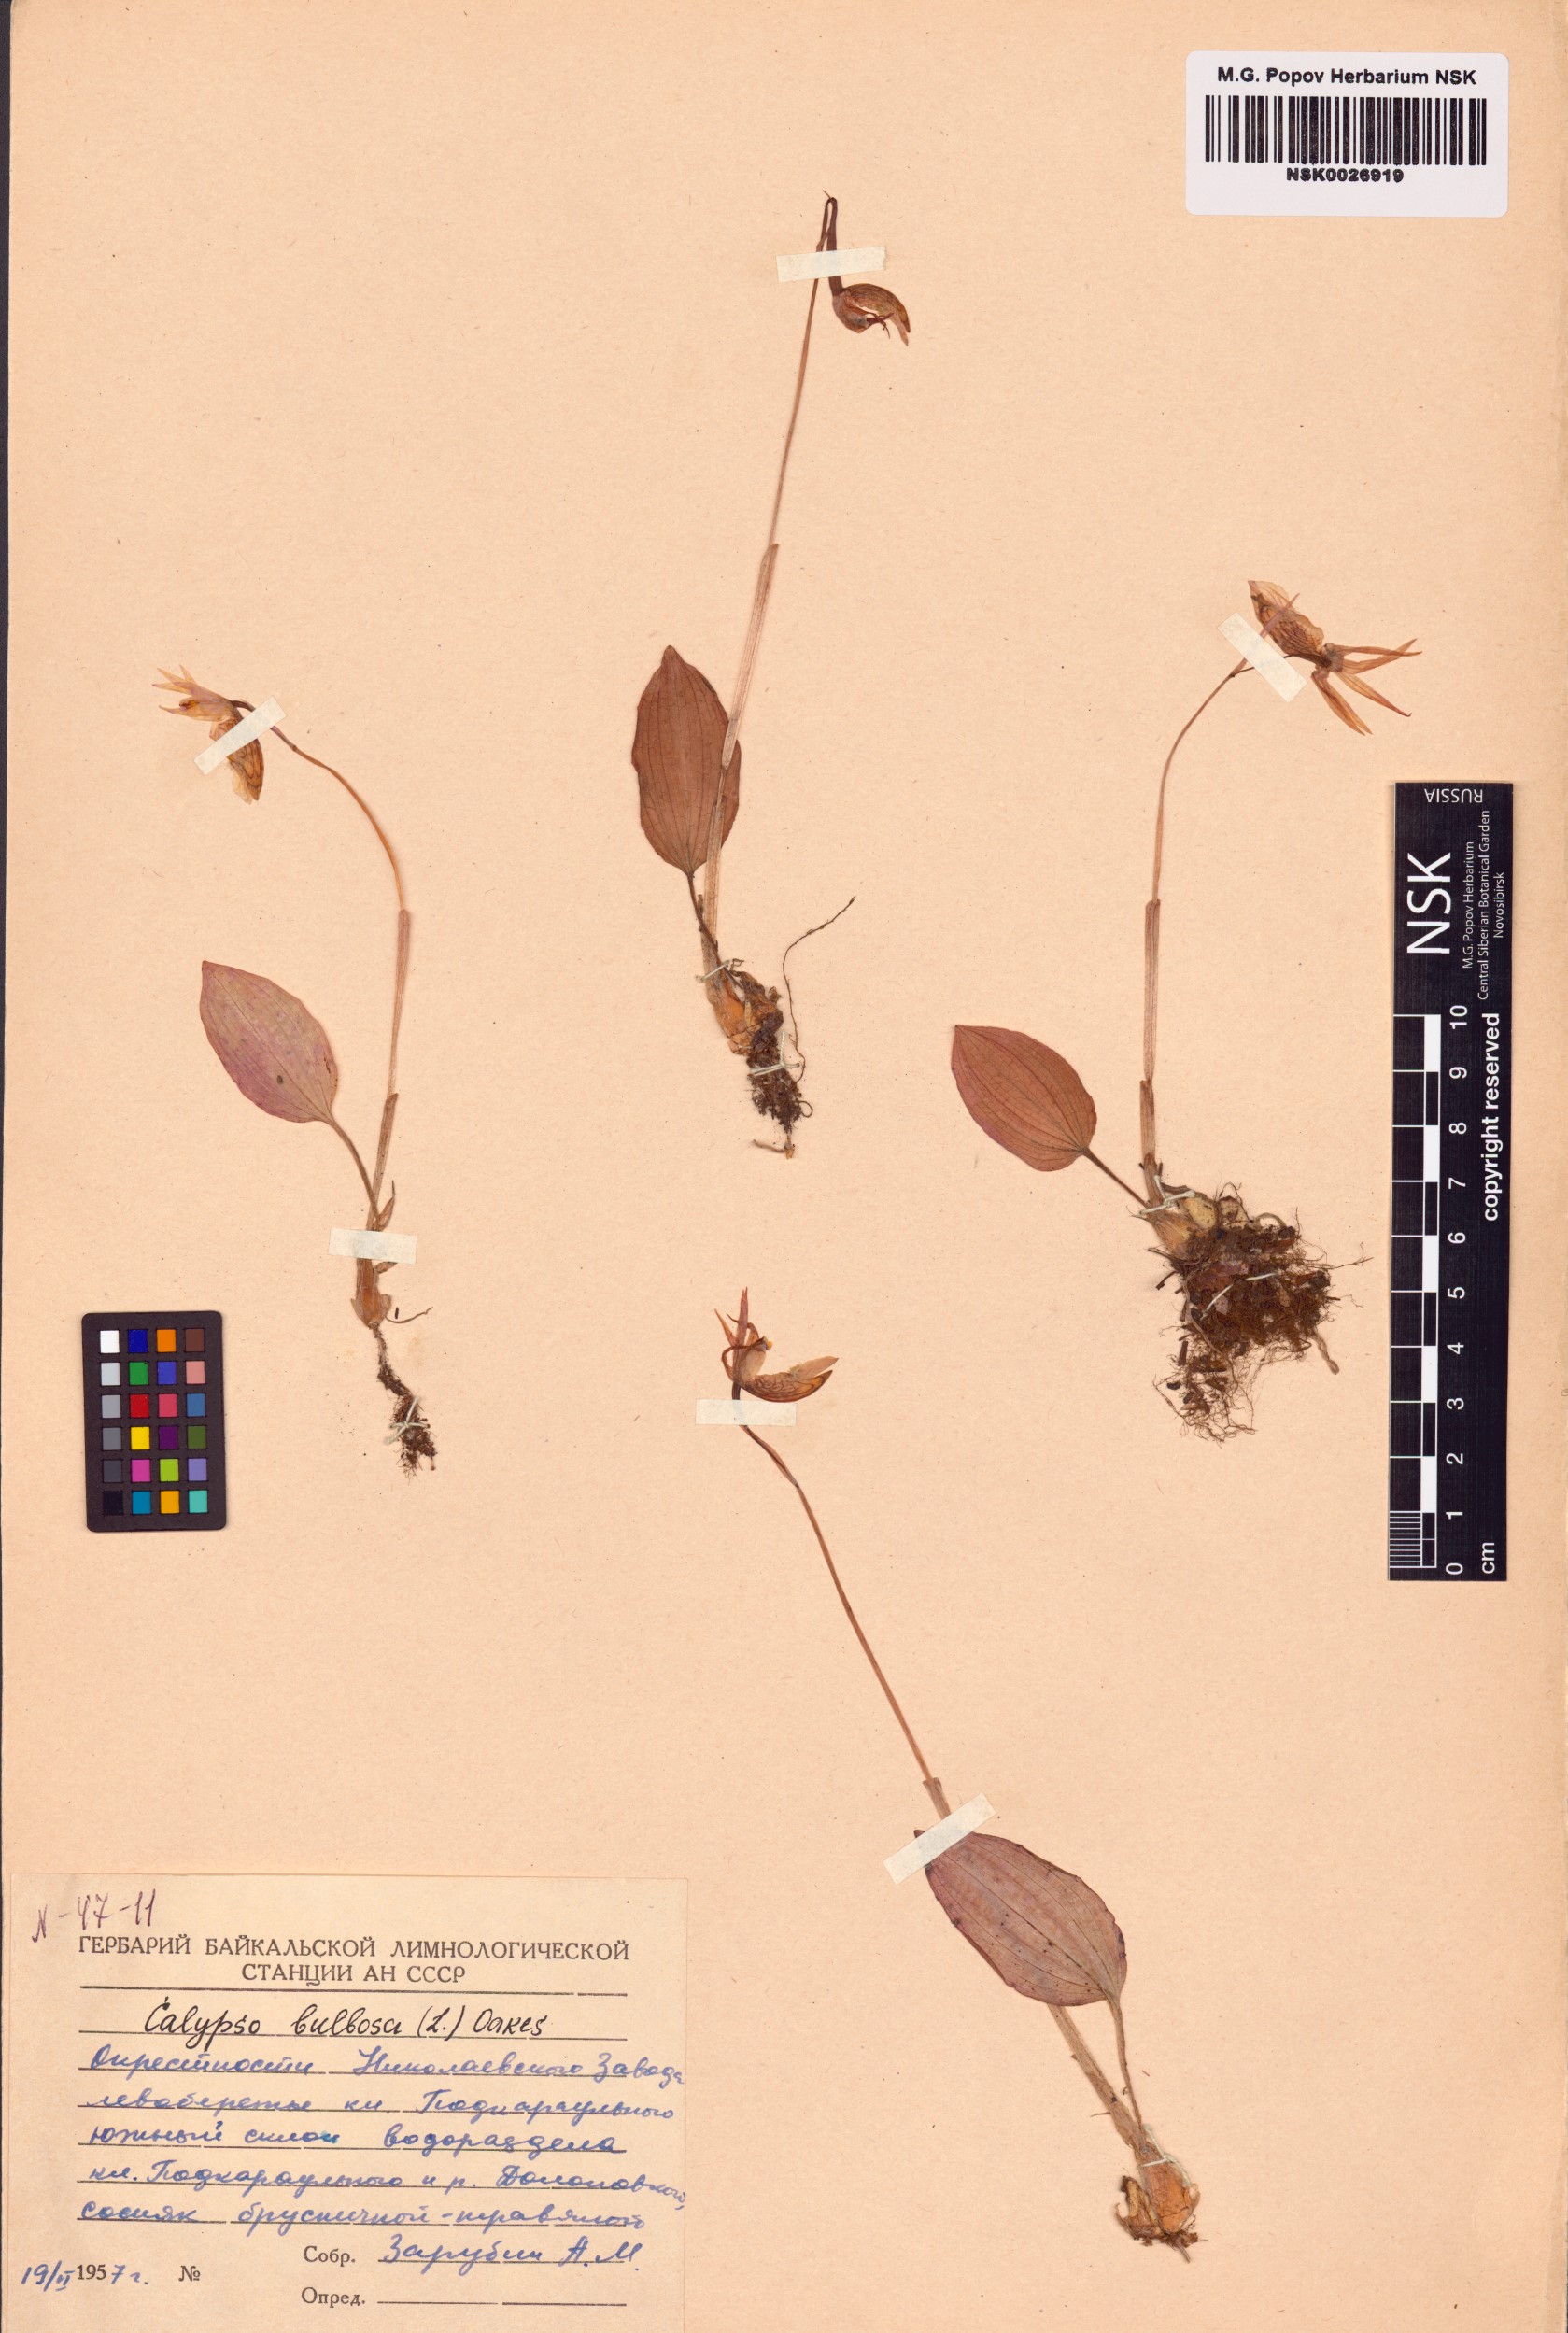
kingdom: Plantae
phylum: Tracheophyta
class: Liliopsida
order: Asparagales
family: Orchidaceae
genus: Calypso
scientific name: Calypso bulbosa
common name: Calypso
